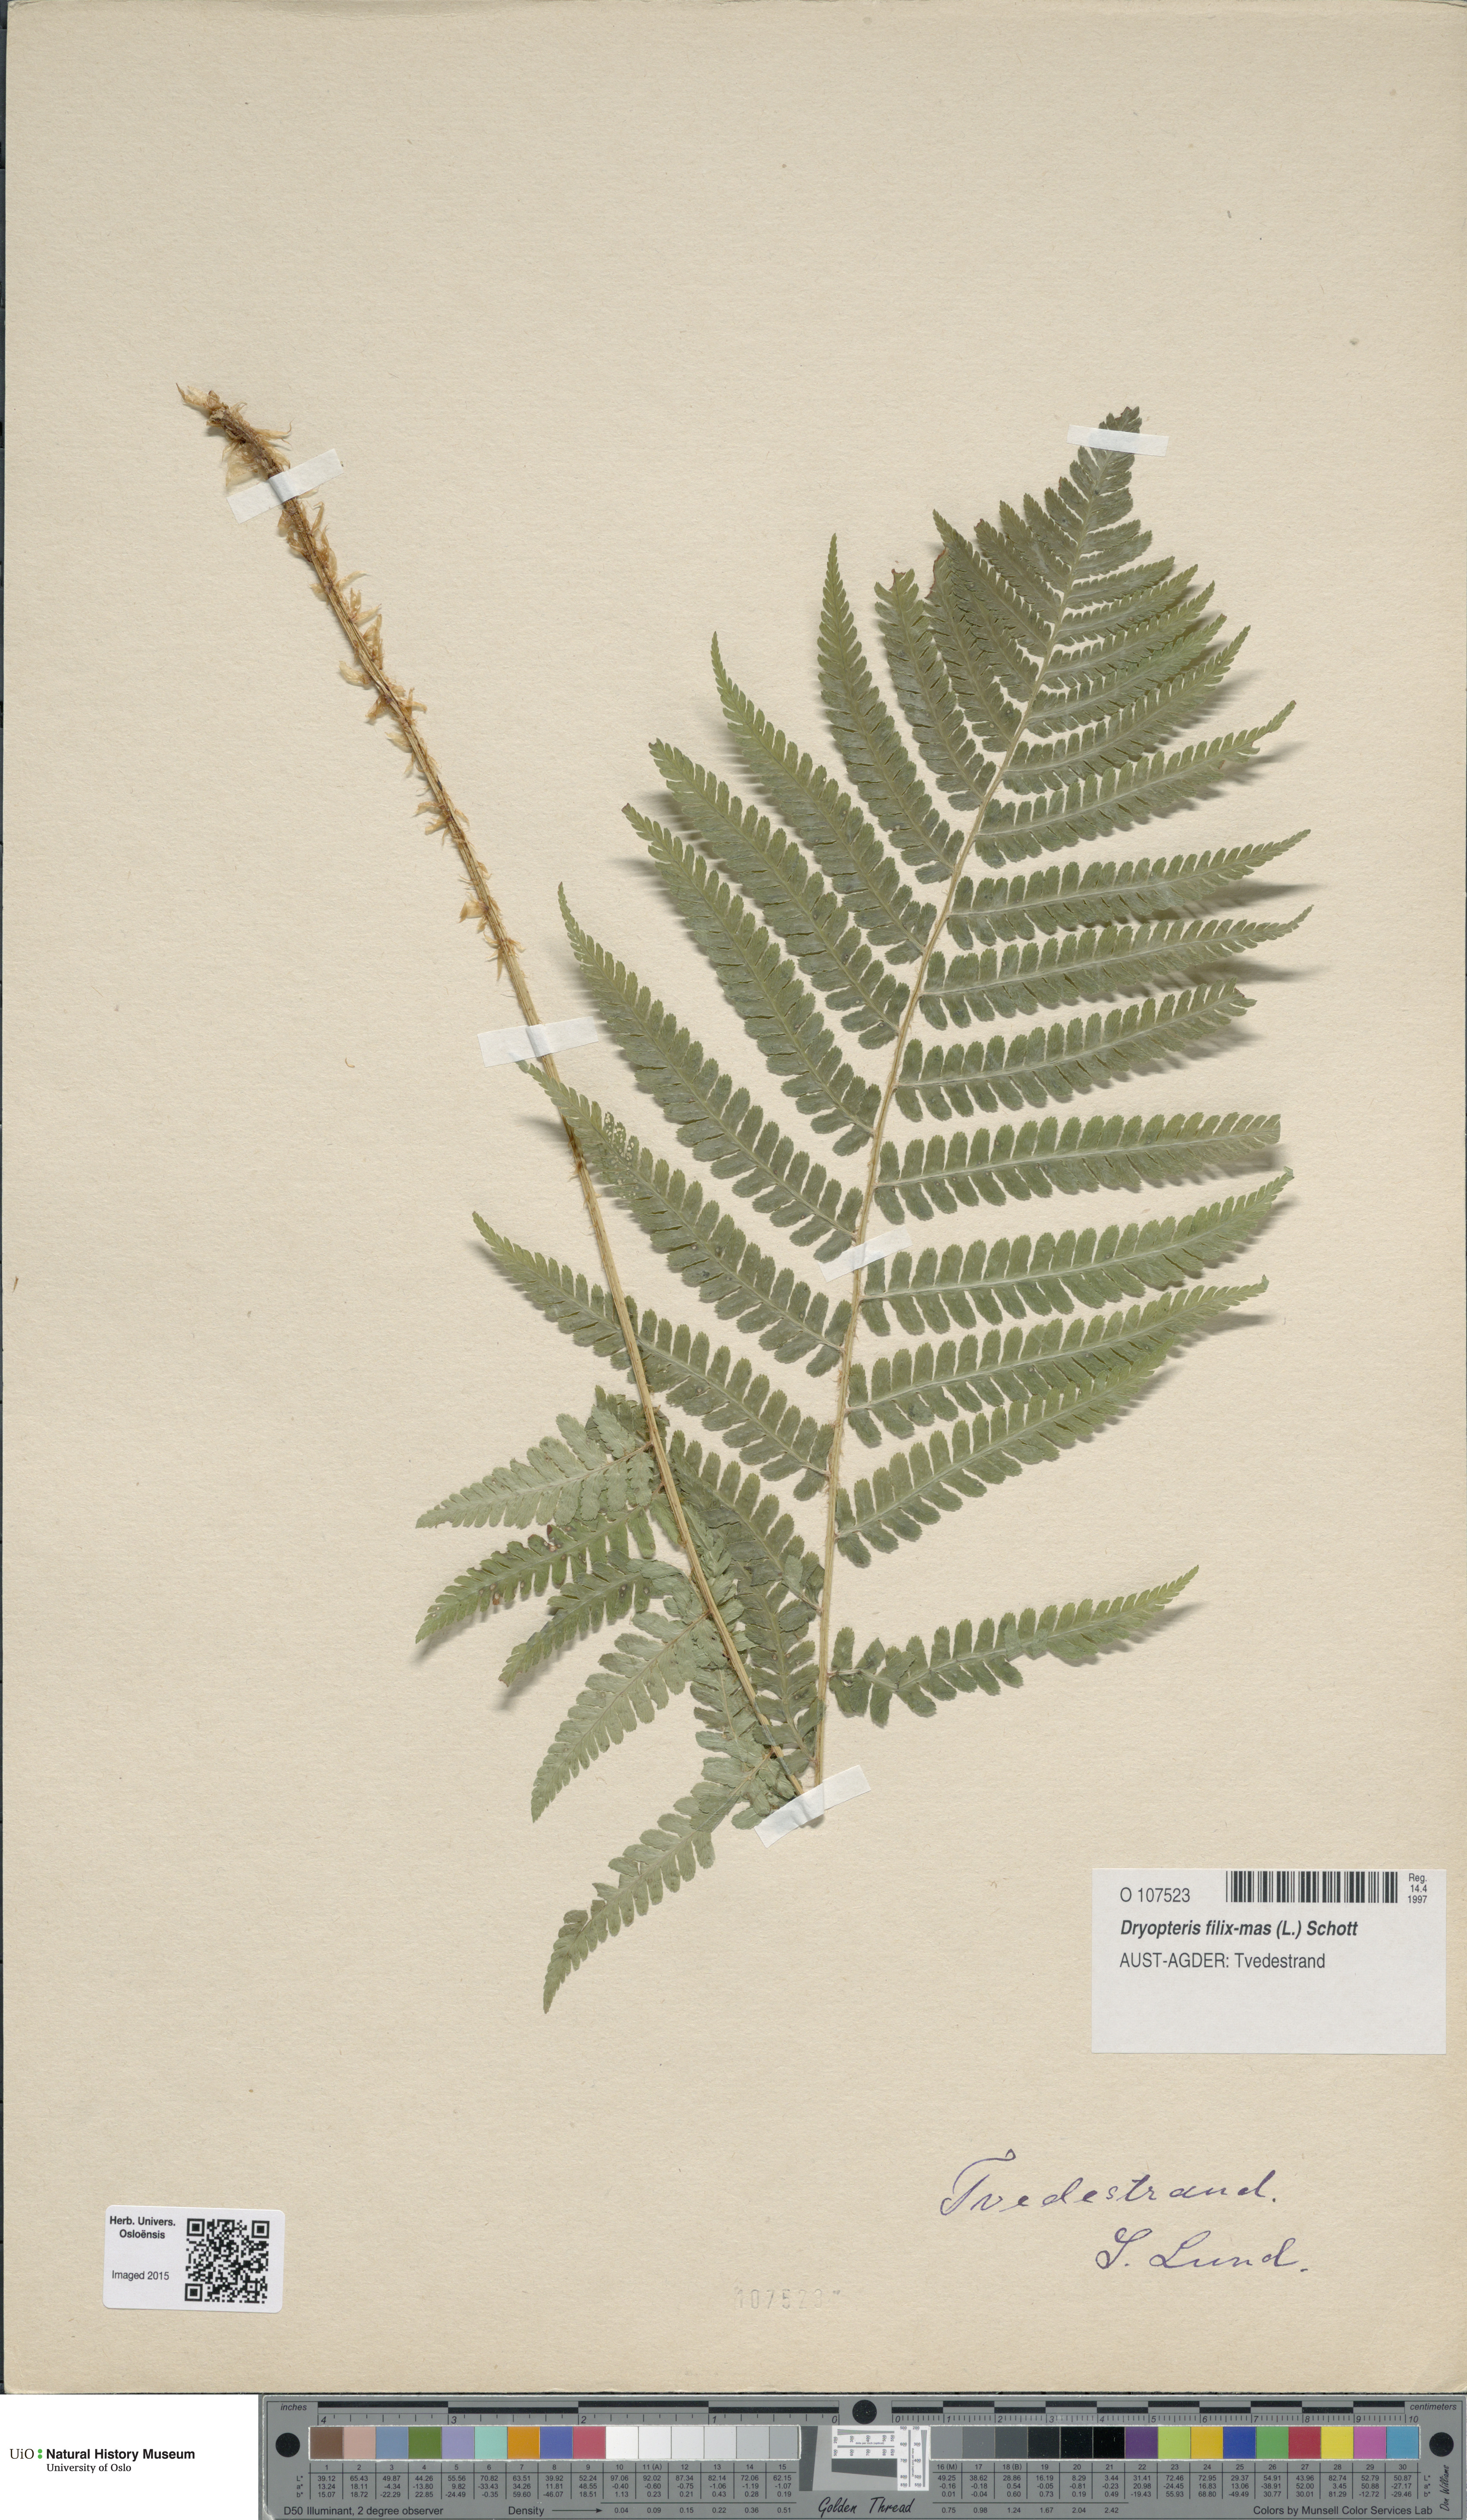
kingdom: Plantae
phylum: Tracheophyta
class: Polypodiopsida
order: Polypodiales
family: Dryopteridaceae
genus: Dryopteris
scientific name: Dryopteris filix-mas
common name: Male fern
